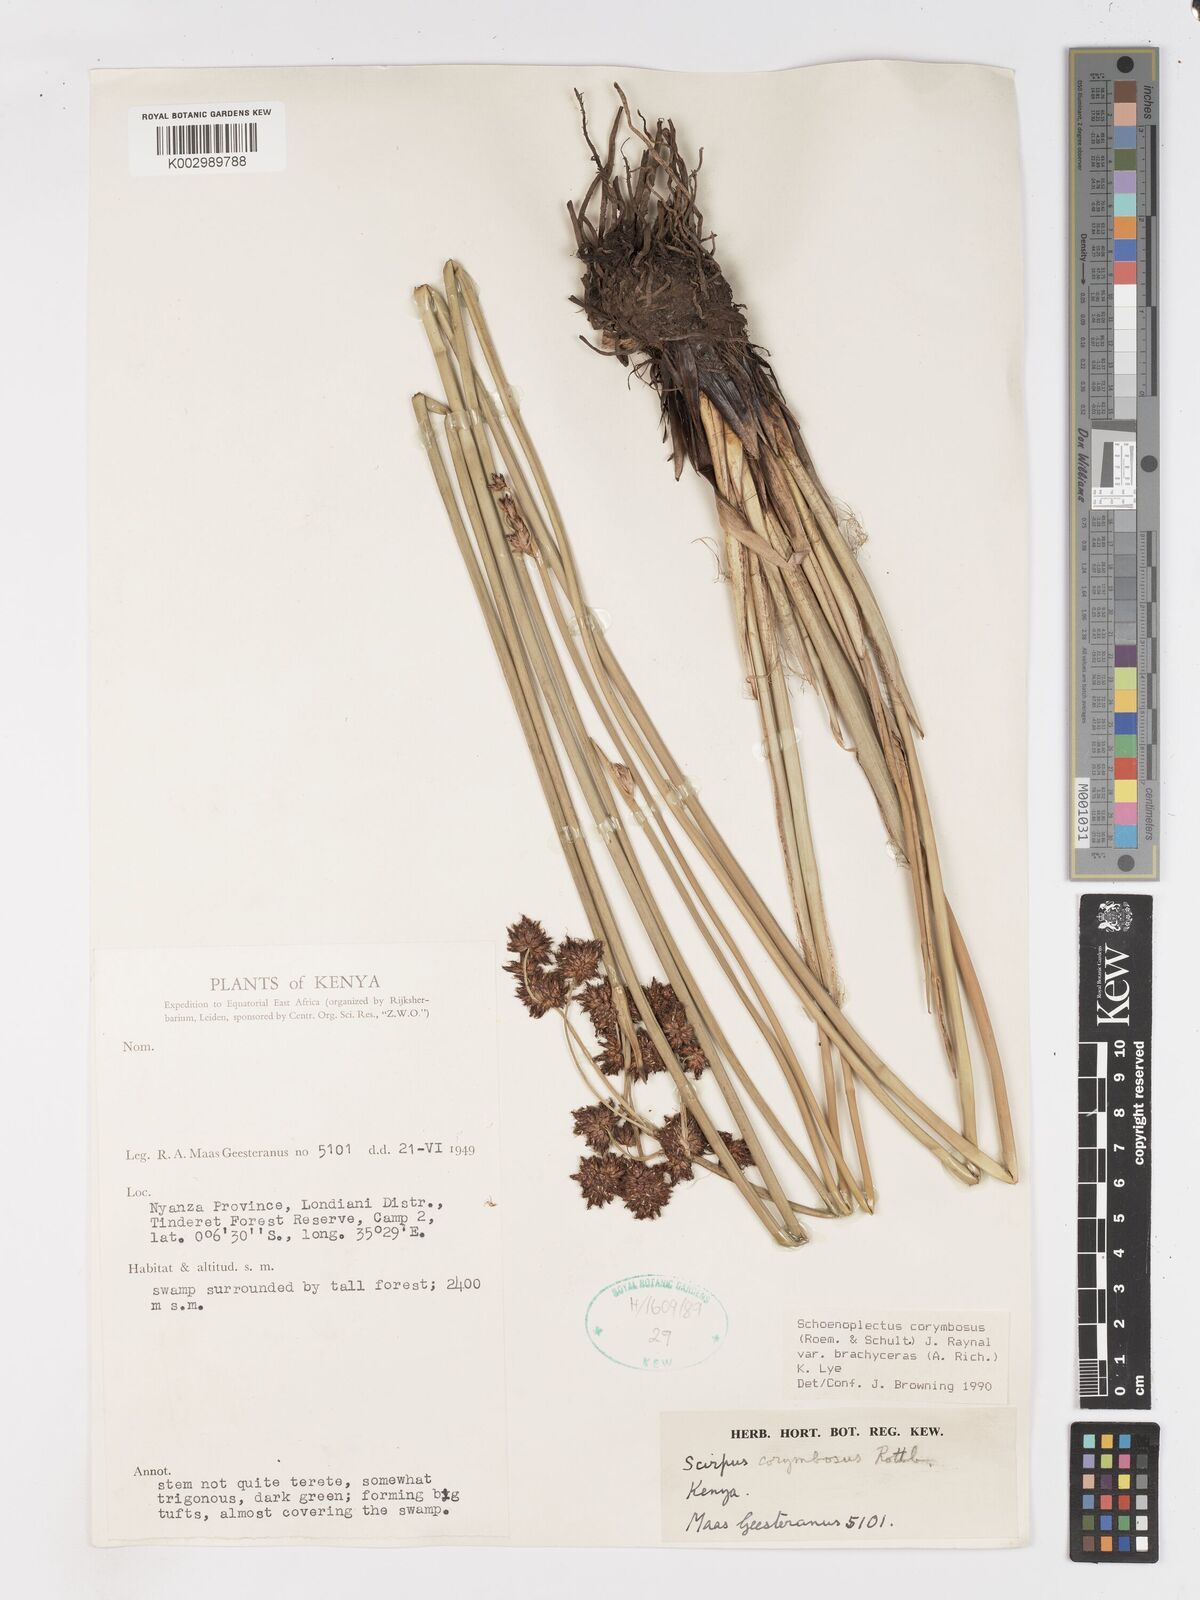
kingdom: Plantae
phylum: Tracheophyta
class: Liliopsida
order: Poales
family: Cyperaceae
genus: Schoenoplectiella
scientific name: Schoenoplectiella brachyceras
